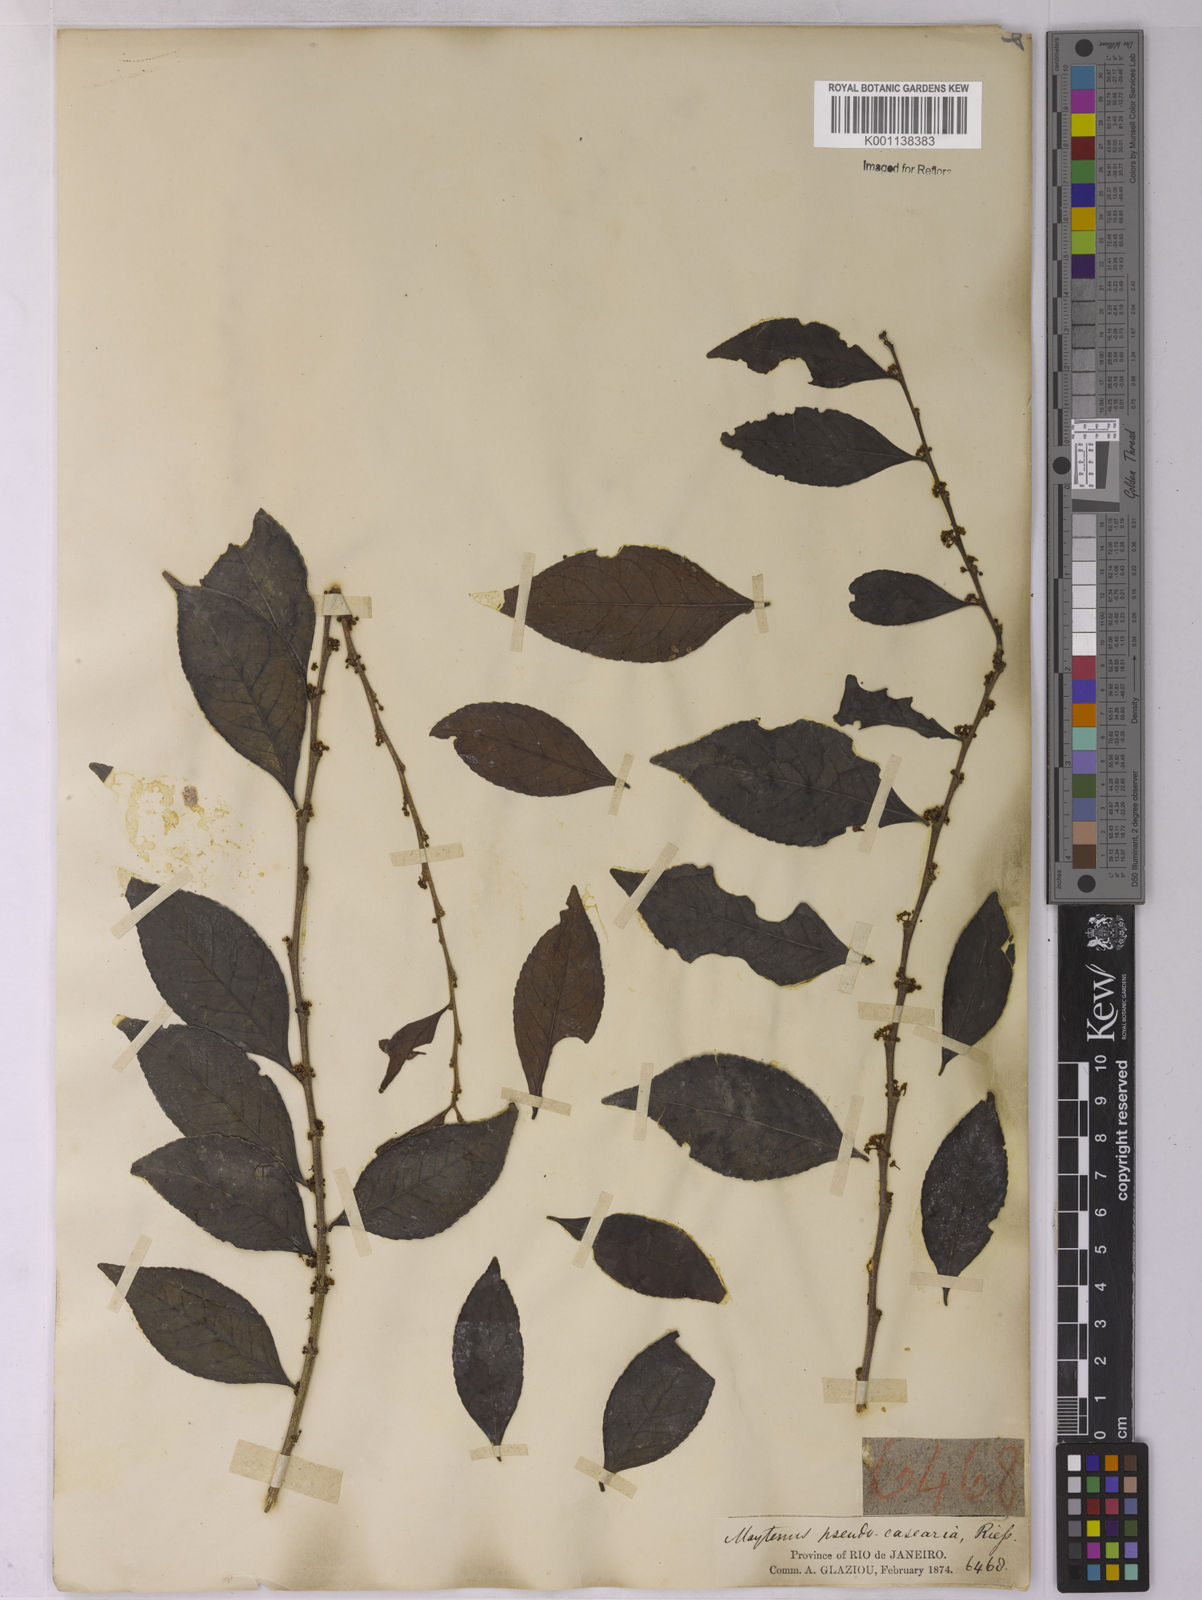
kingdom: Plantae
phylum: Tracheophyta
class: Magnoliopsida
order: Celastrales
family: Celastraceae
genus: Monteverdia
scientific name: Monteverdia evonymoides
